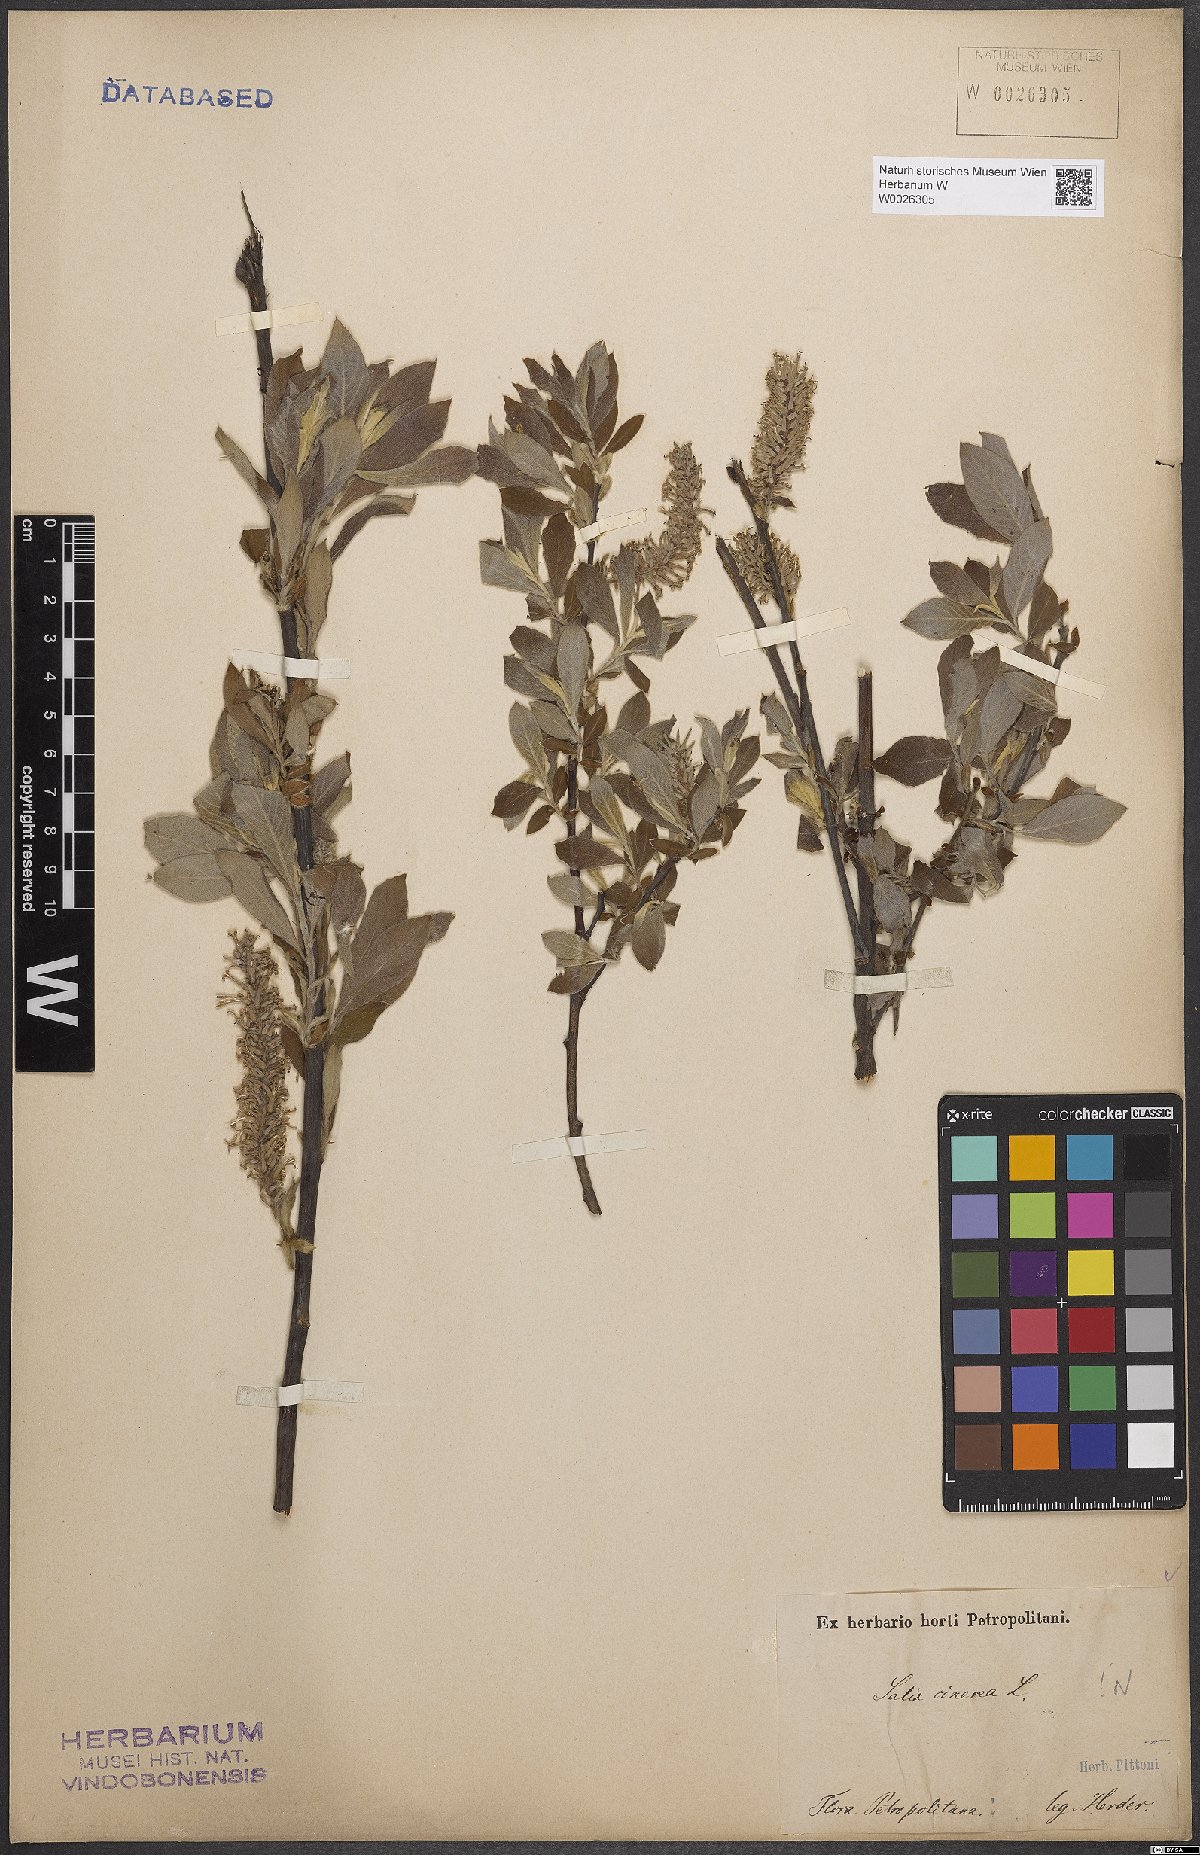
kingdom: Plantae
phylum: Tracheophyta
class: Magnoliopsida
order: Malpighiales
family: Salicaceae
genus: Salix
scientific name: Salix cinerea
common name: Common sallow
